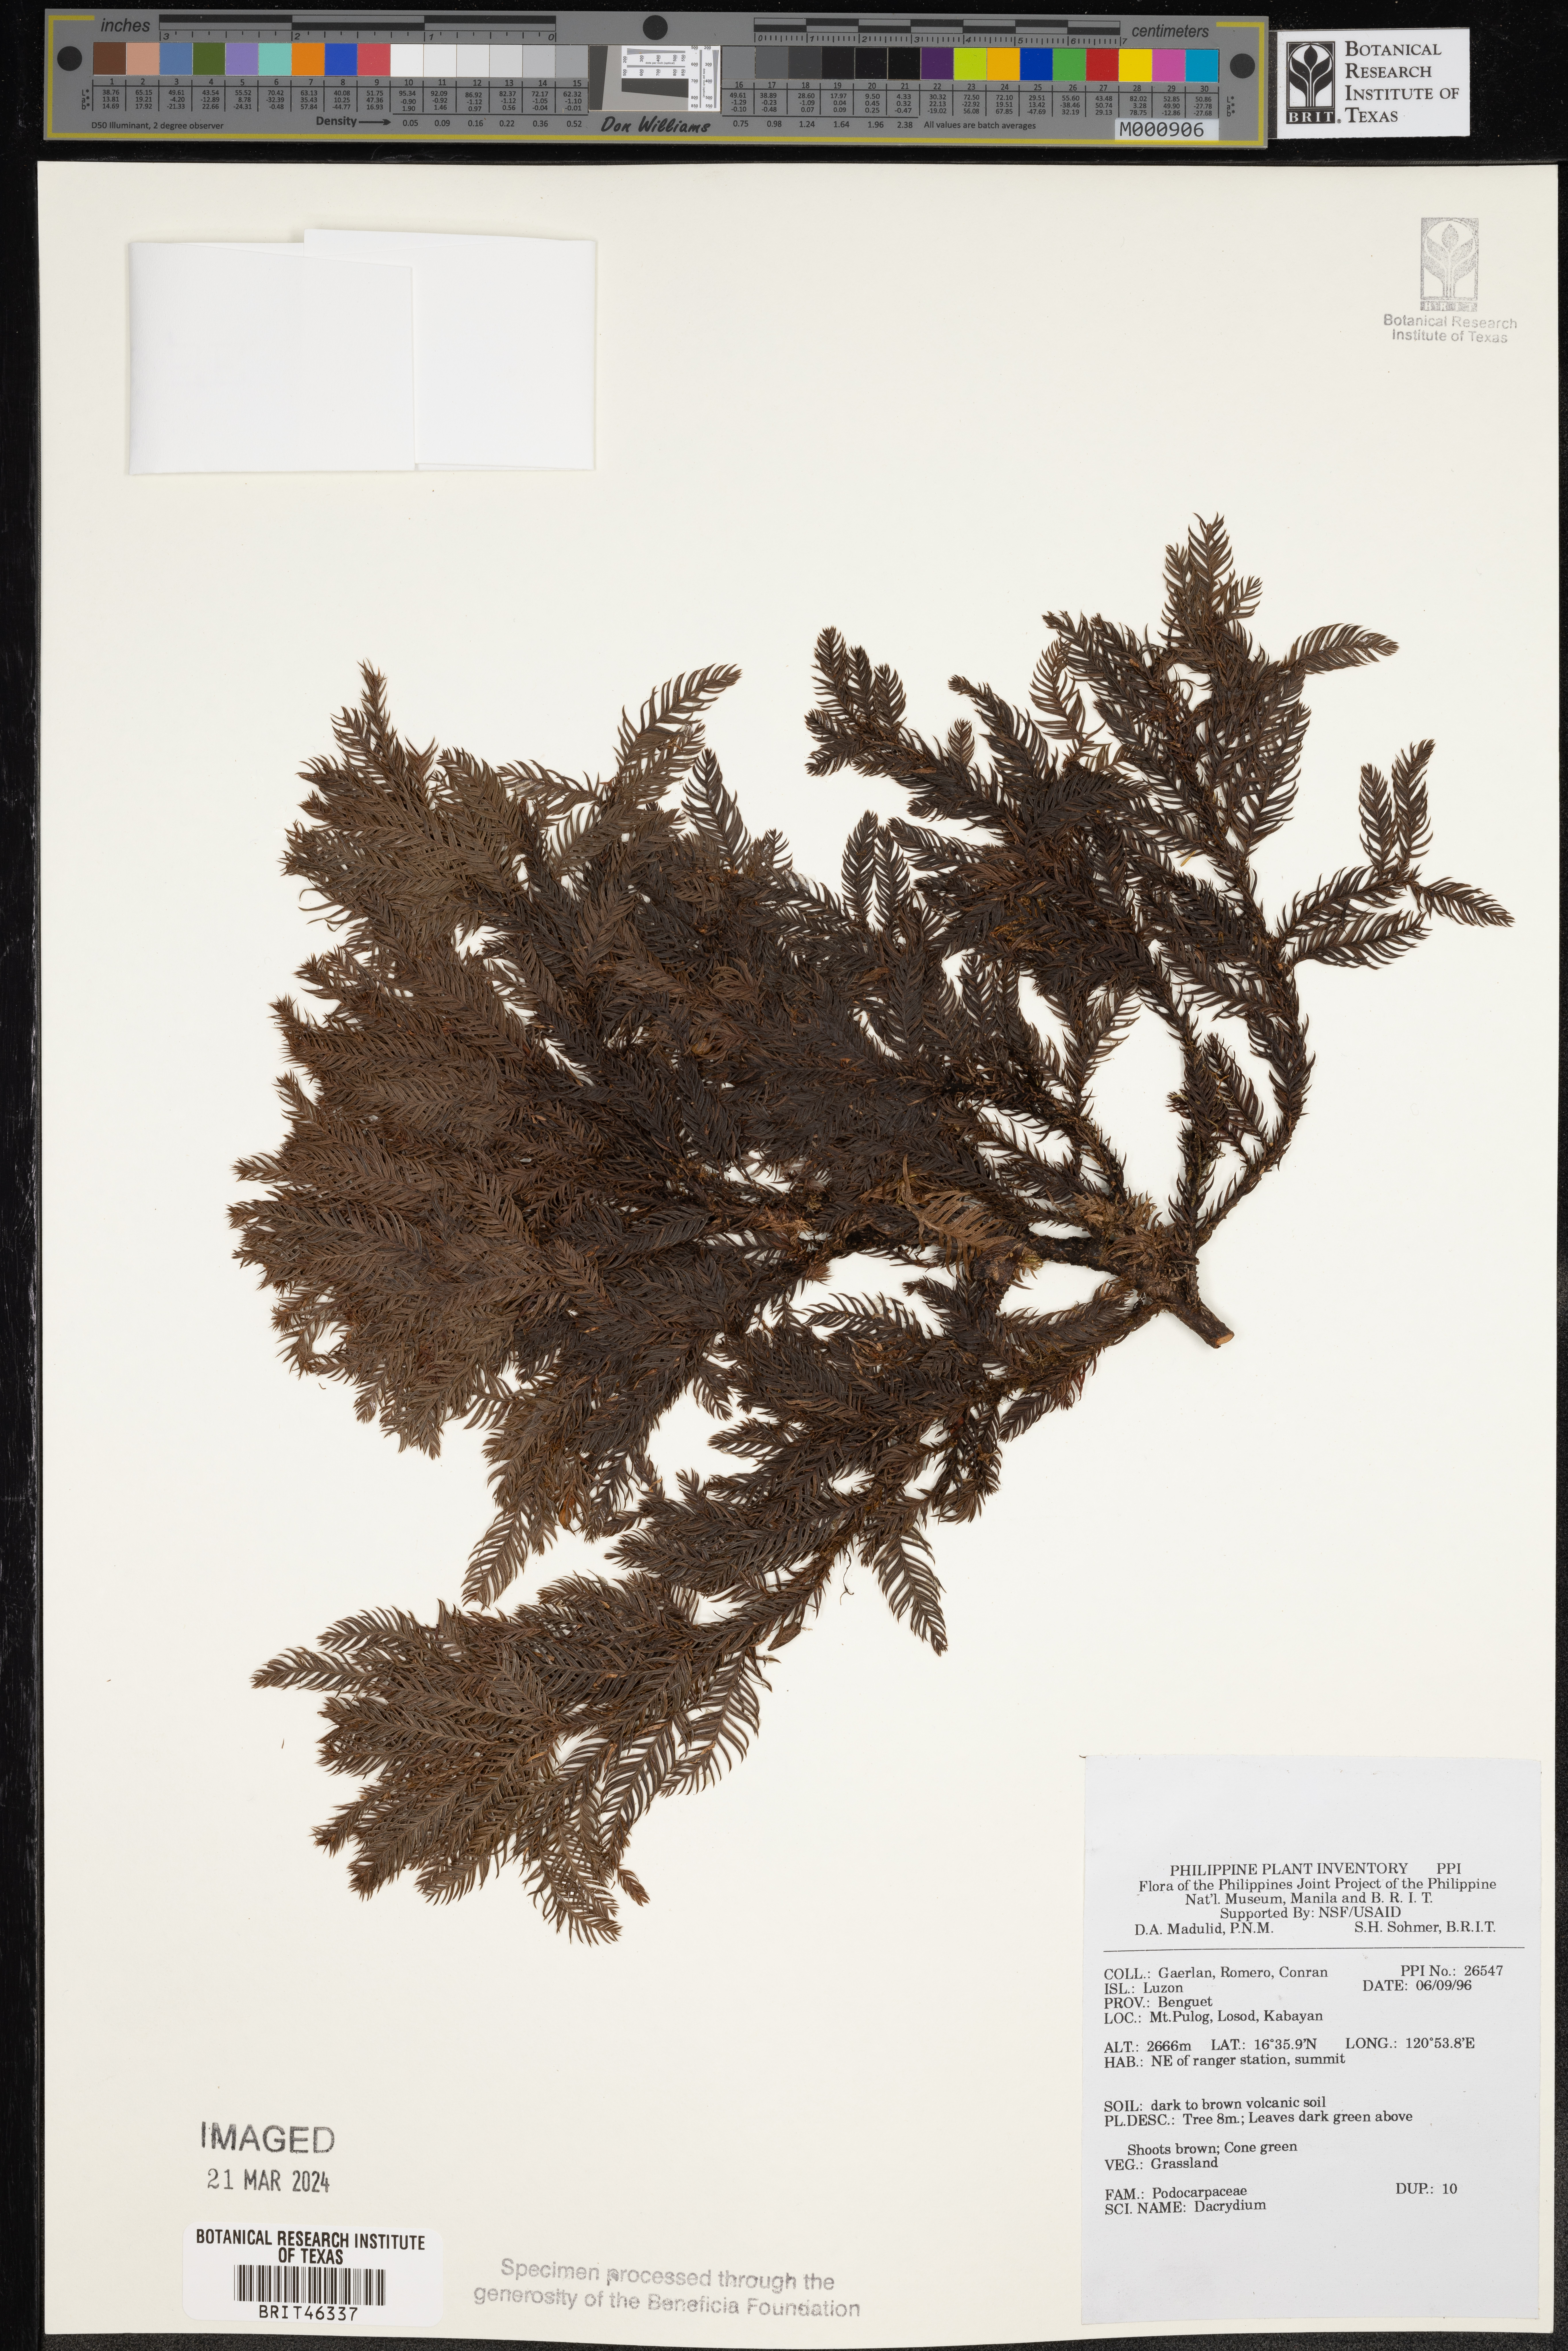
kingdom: Plantae
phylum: Tracheophyta
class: Pinopsida
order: Pinales
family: Podocarpaceae
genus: Dacrydium
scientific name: Dacrydium
